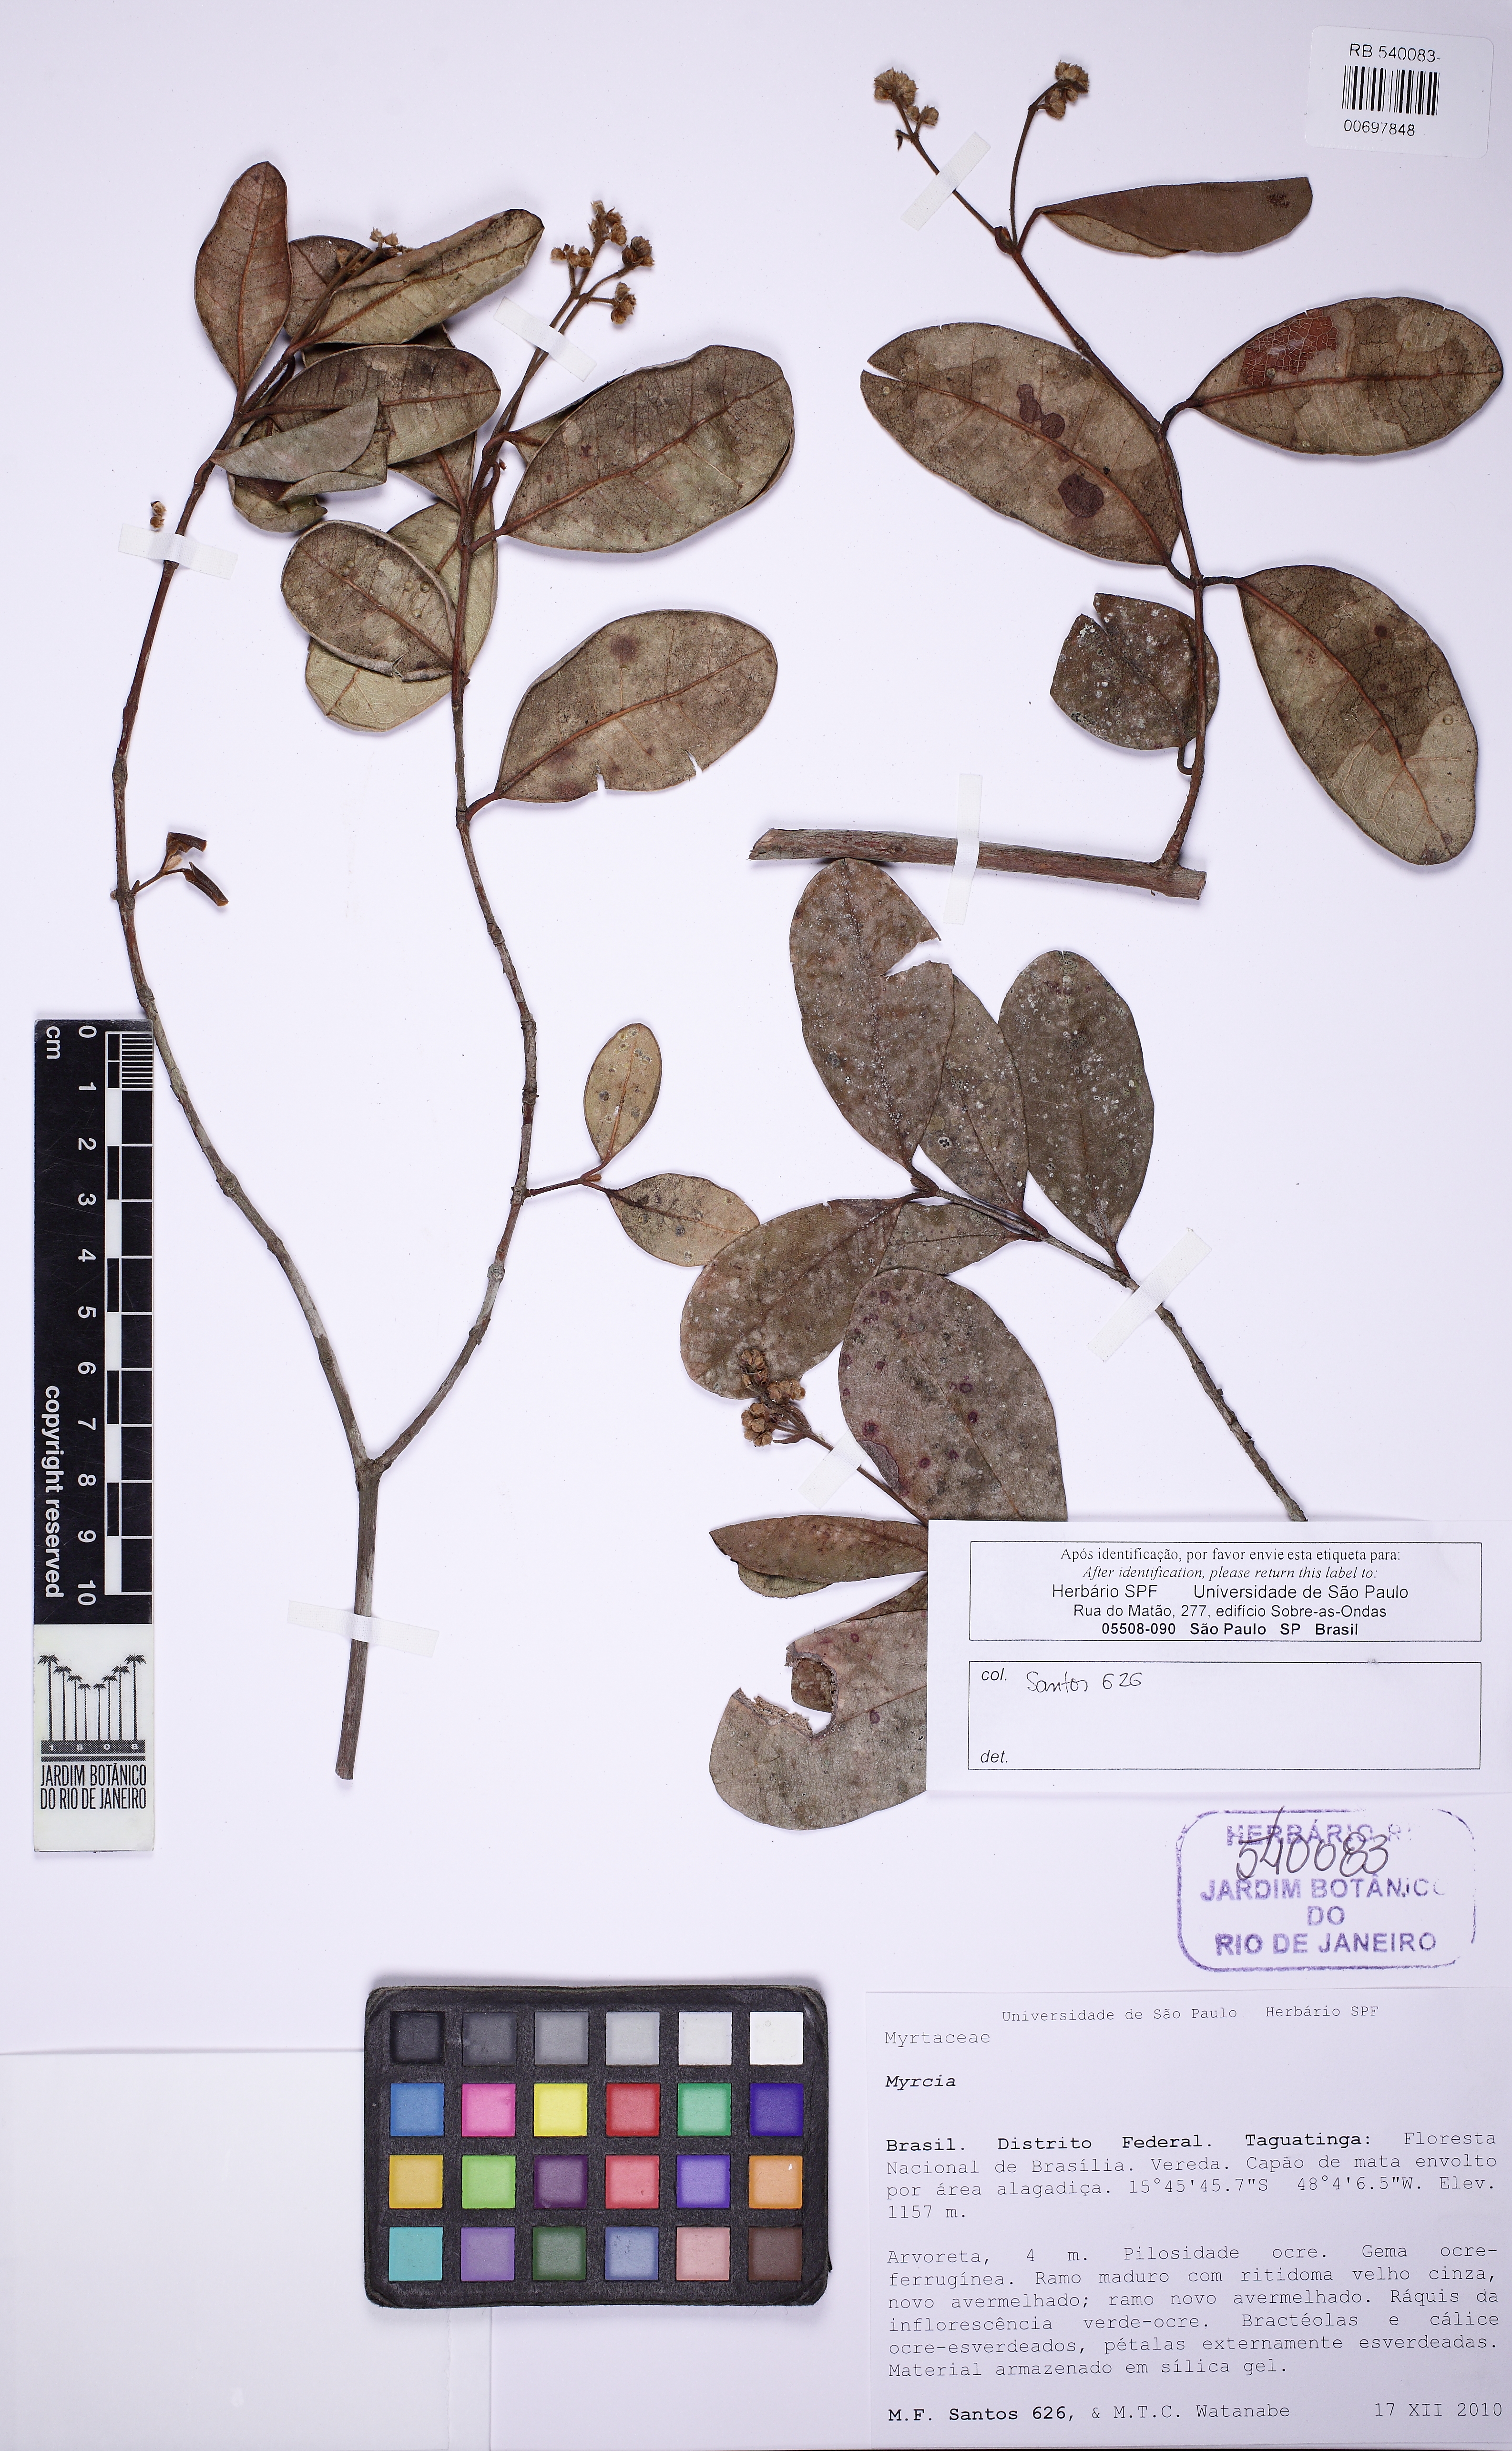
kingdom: Plantae
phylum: Tracheophyta
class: Magnoliopsida
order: Myrtales
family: Myrtaceae
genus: Myrcia
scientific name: Myrcia pubescens
